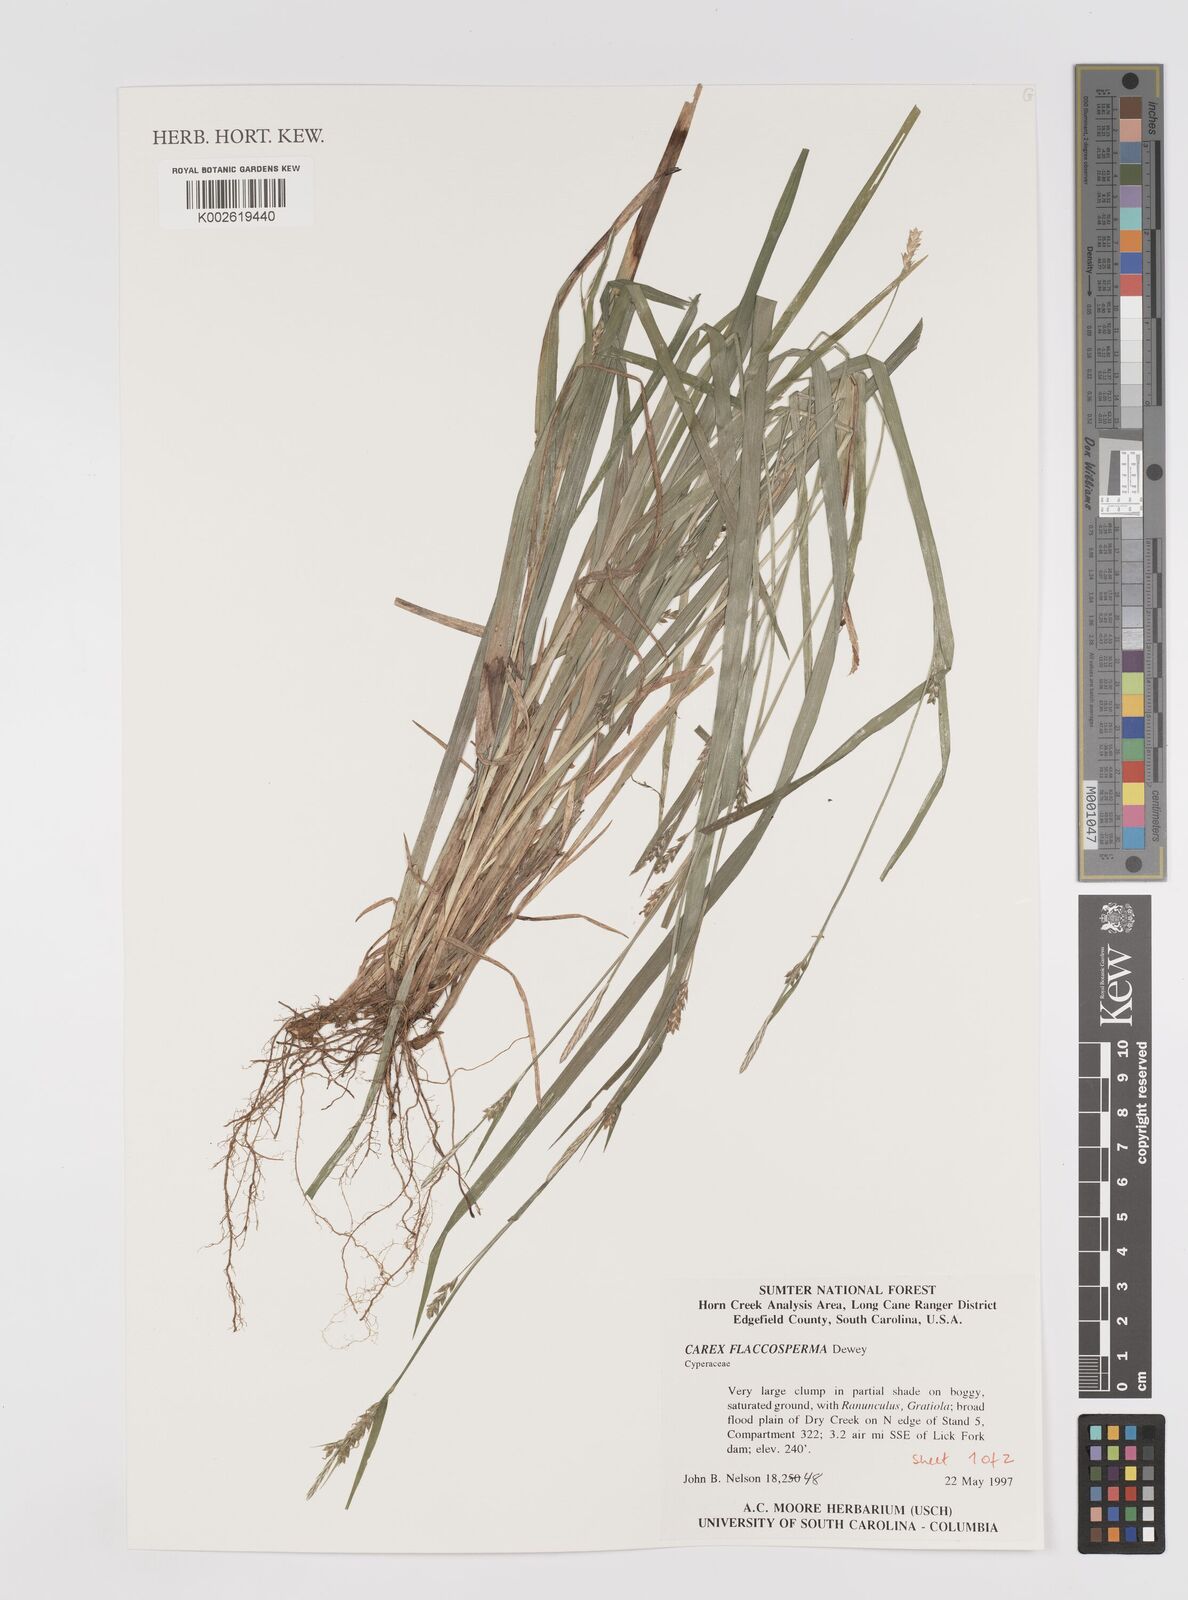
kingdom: Plantae
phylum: Tracheophyta
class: Liliopsida
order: Poales
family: Cyperaceae
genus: Carex
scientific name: Carex flaccosperma
